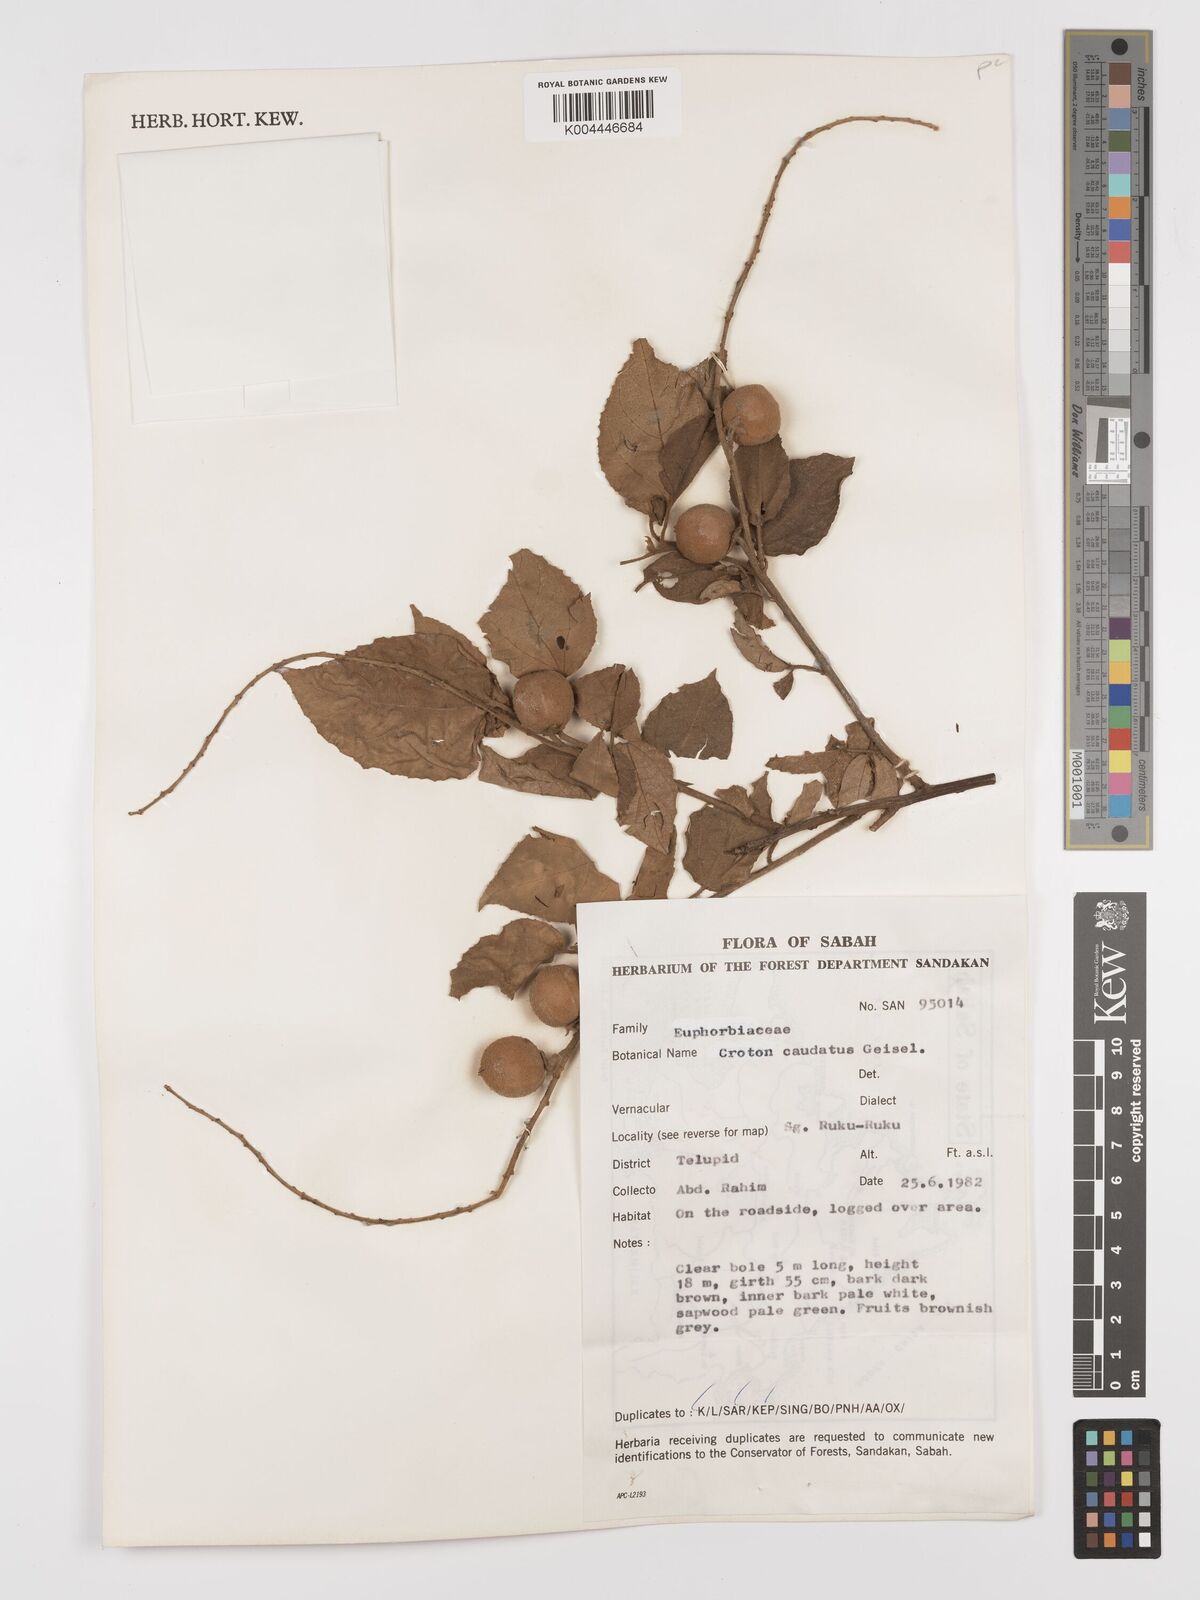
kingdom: Plantae
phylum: Tracheophyta
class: Magnoliopsida
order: Malpighiales
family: Euphorbiaceae
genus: Croton
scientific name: Croton caudatus
